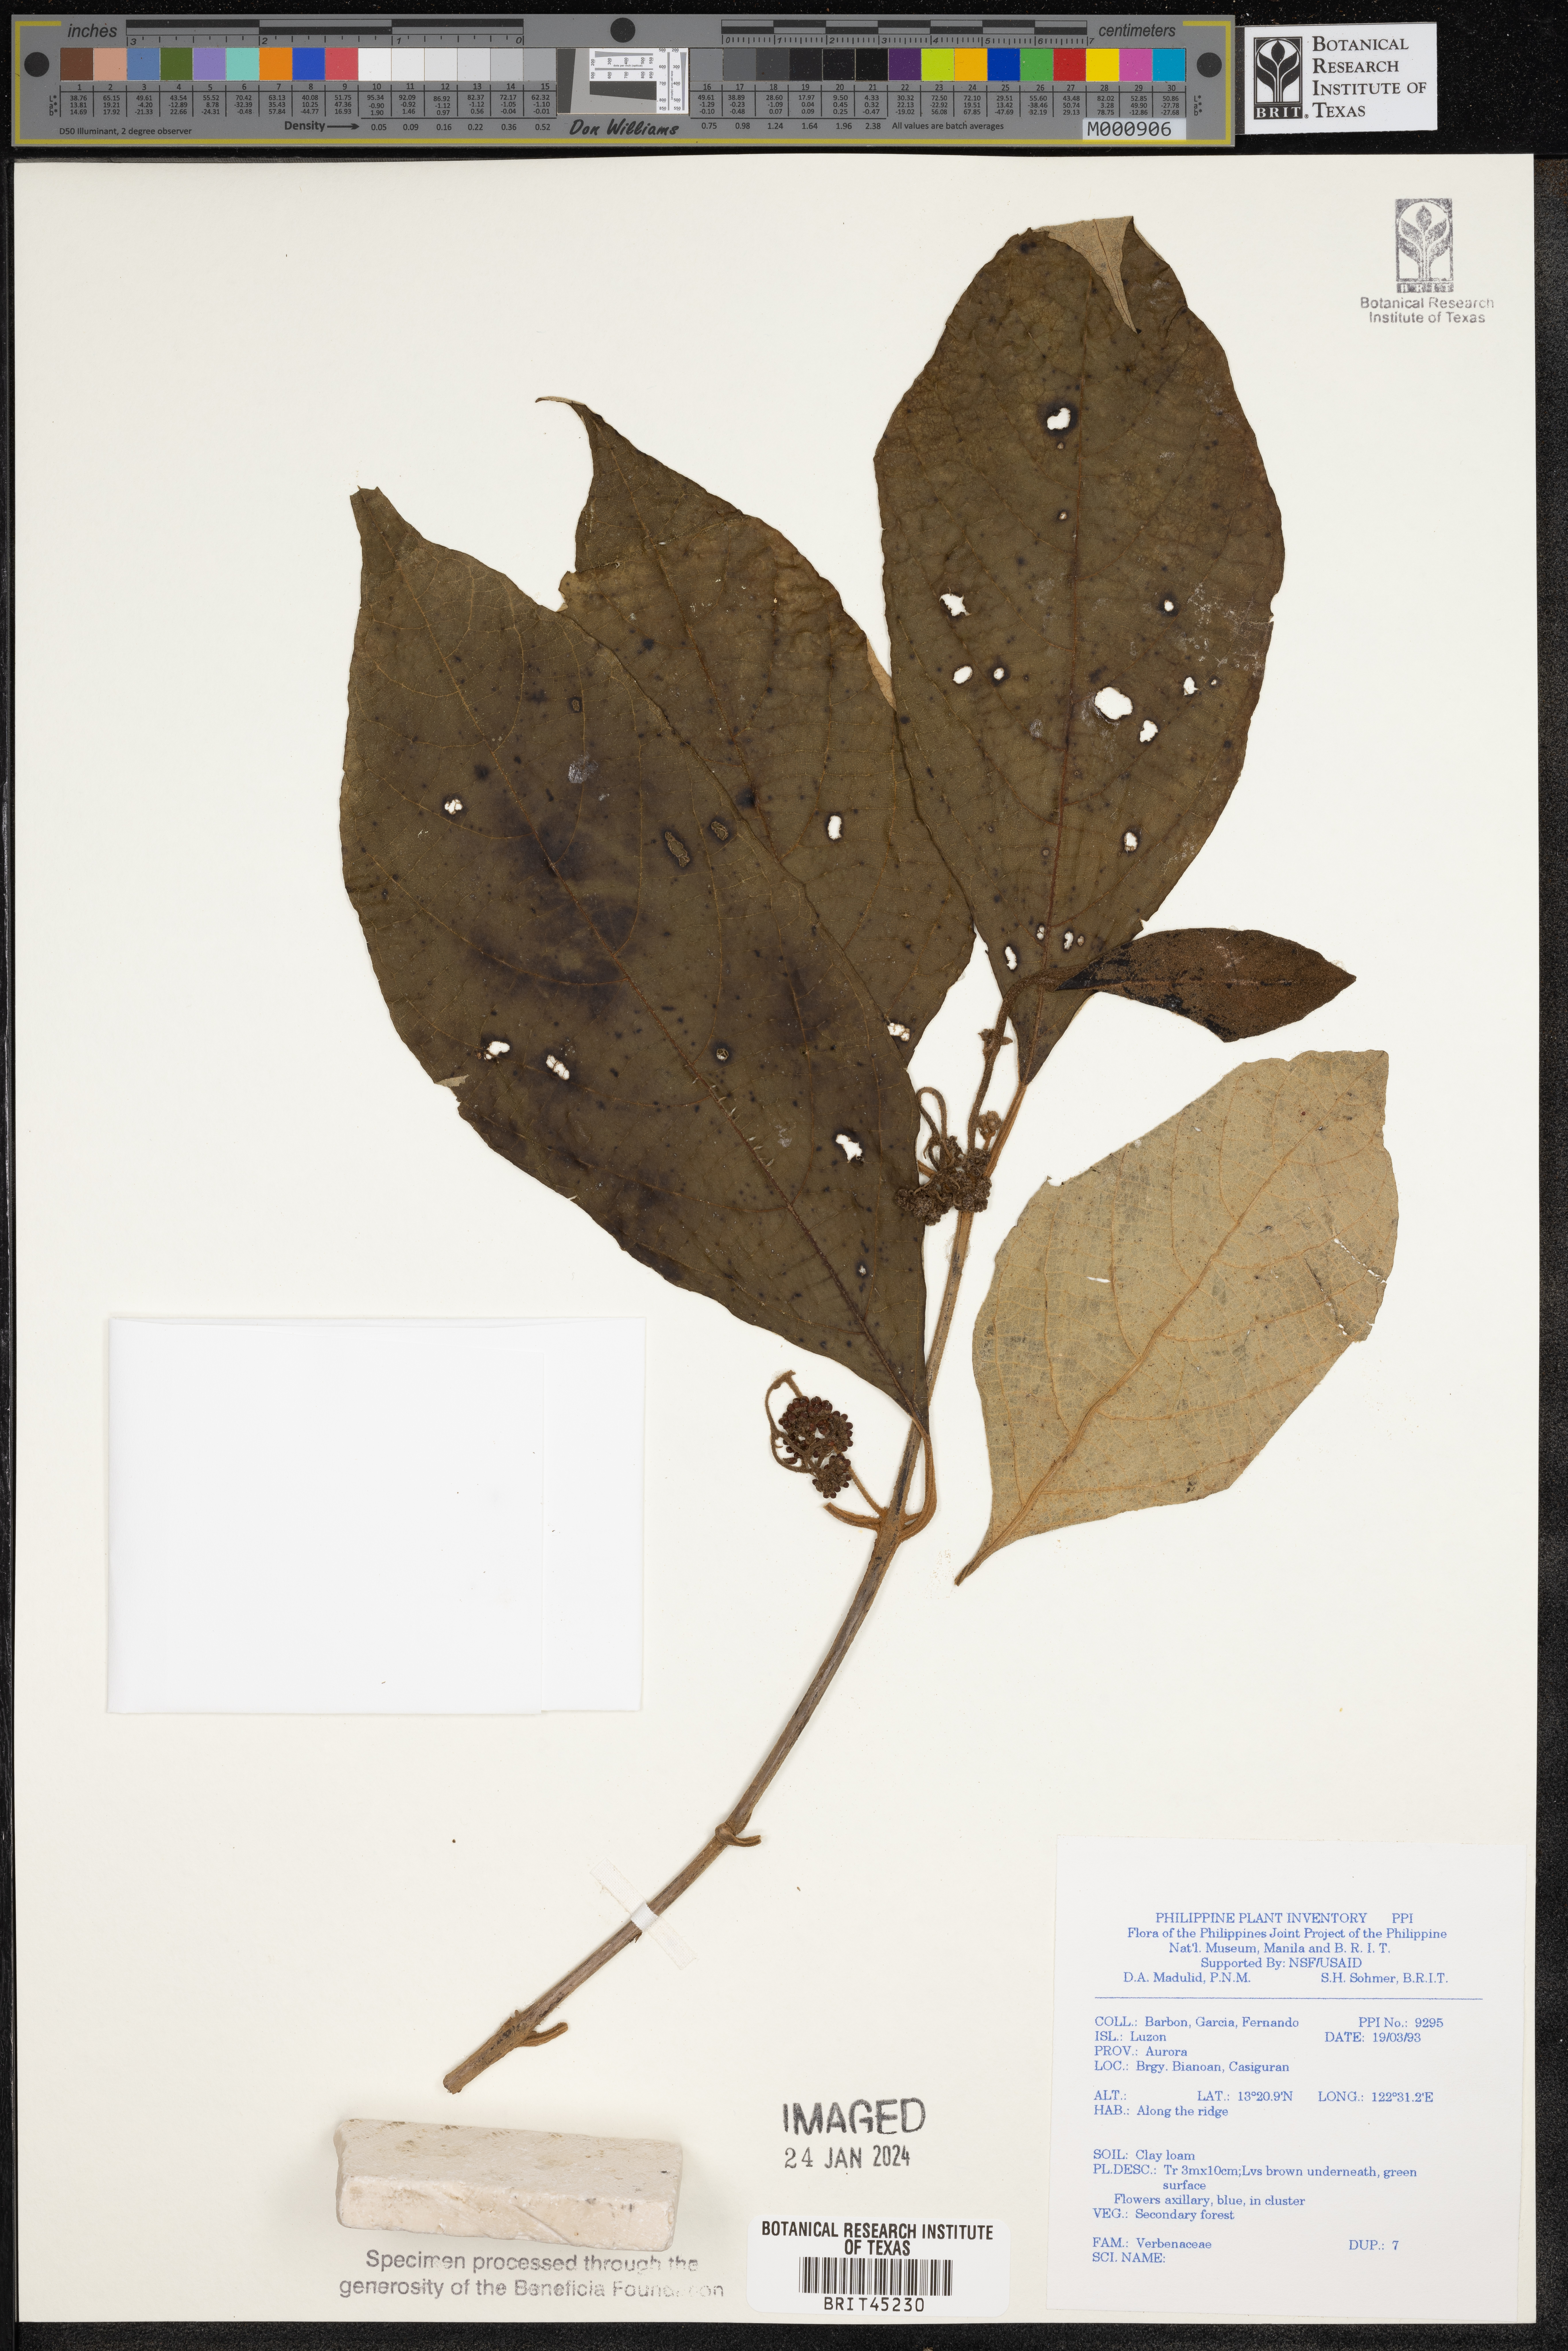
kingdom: Plantae
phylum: Tracheophyta
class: Magnoliopsida
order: Lamiales
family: Verbenaceae
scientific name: Verbenaceae
